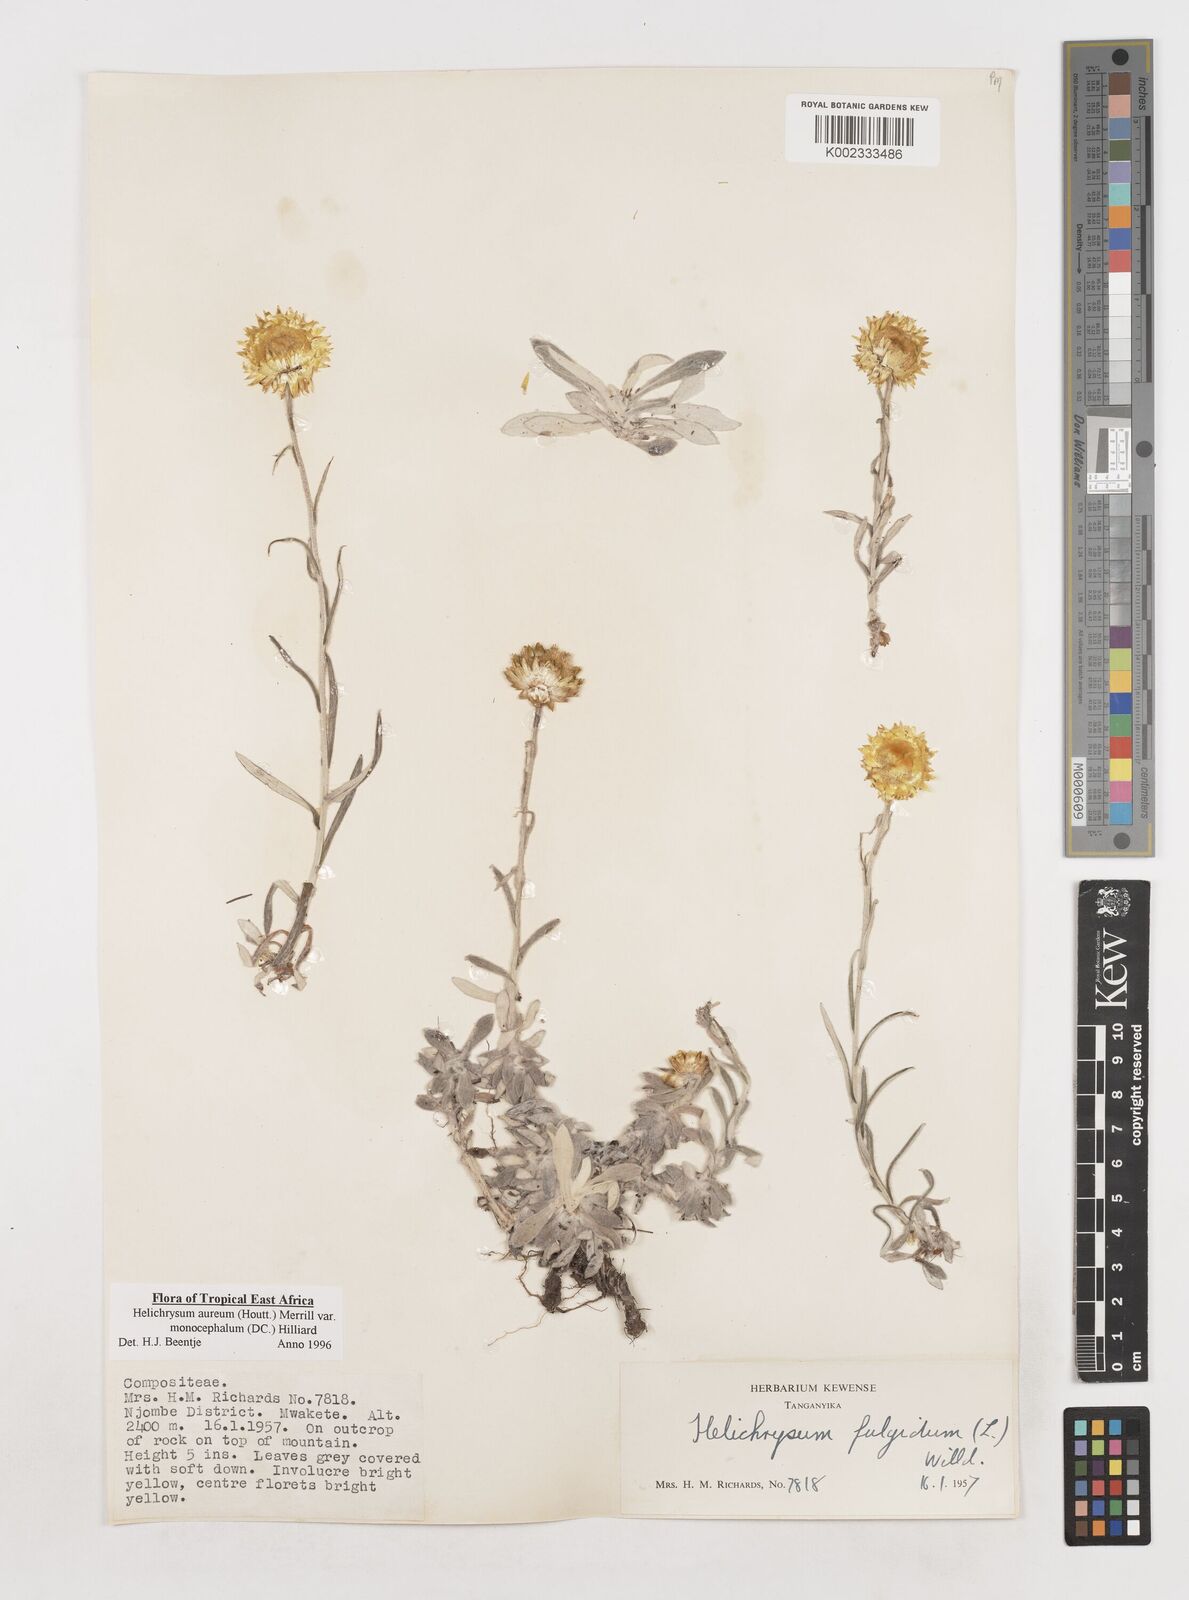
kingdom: Plantae
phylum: Tracheophyta
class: Magnoliopsida
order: Asterales
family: Asteraceae
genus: Helichrysum
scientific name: Helichrysum aureum
